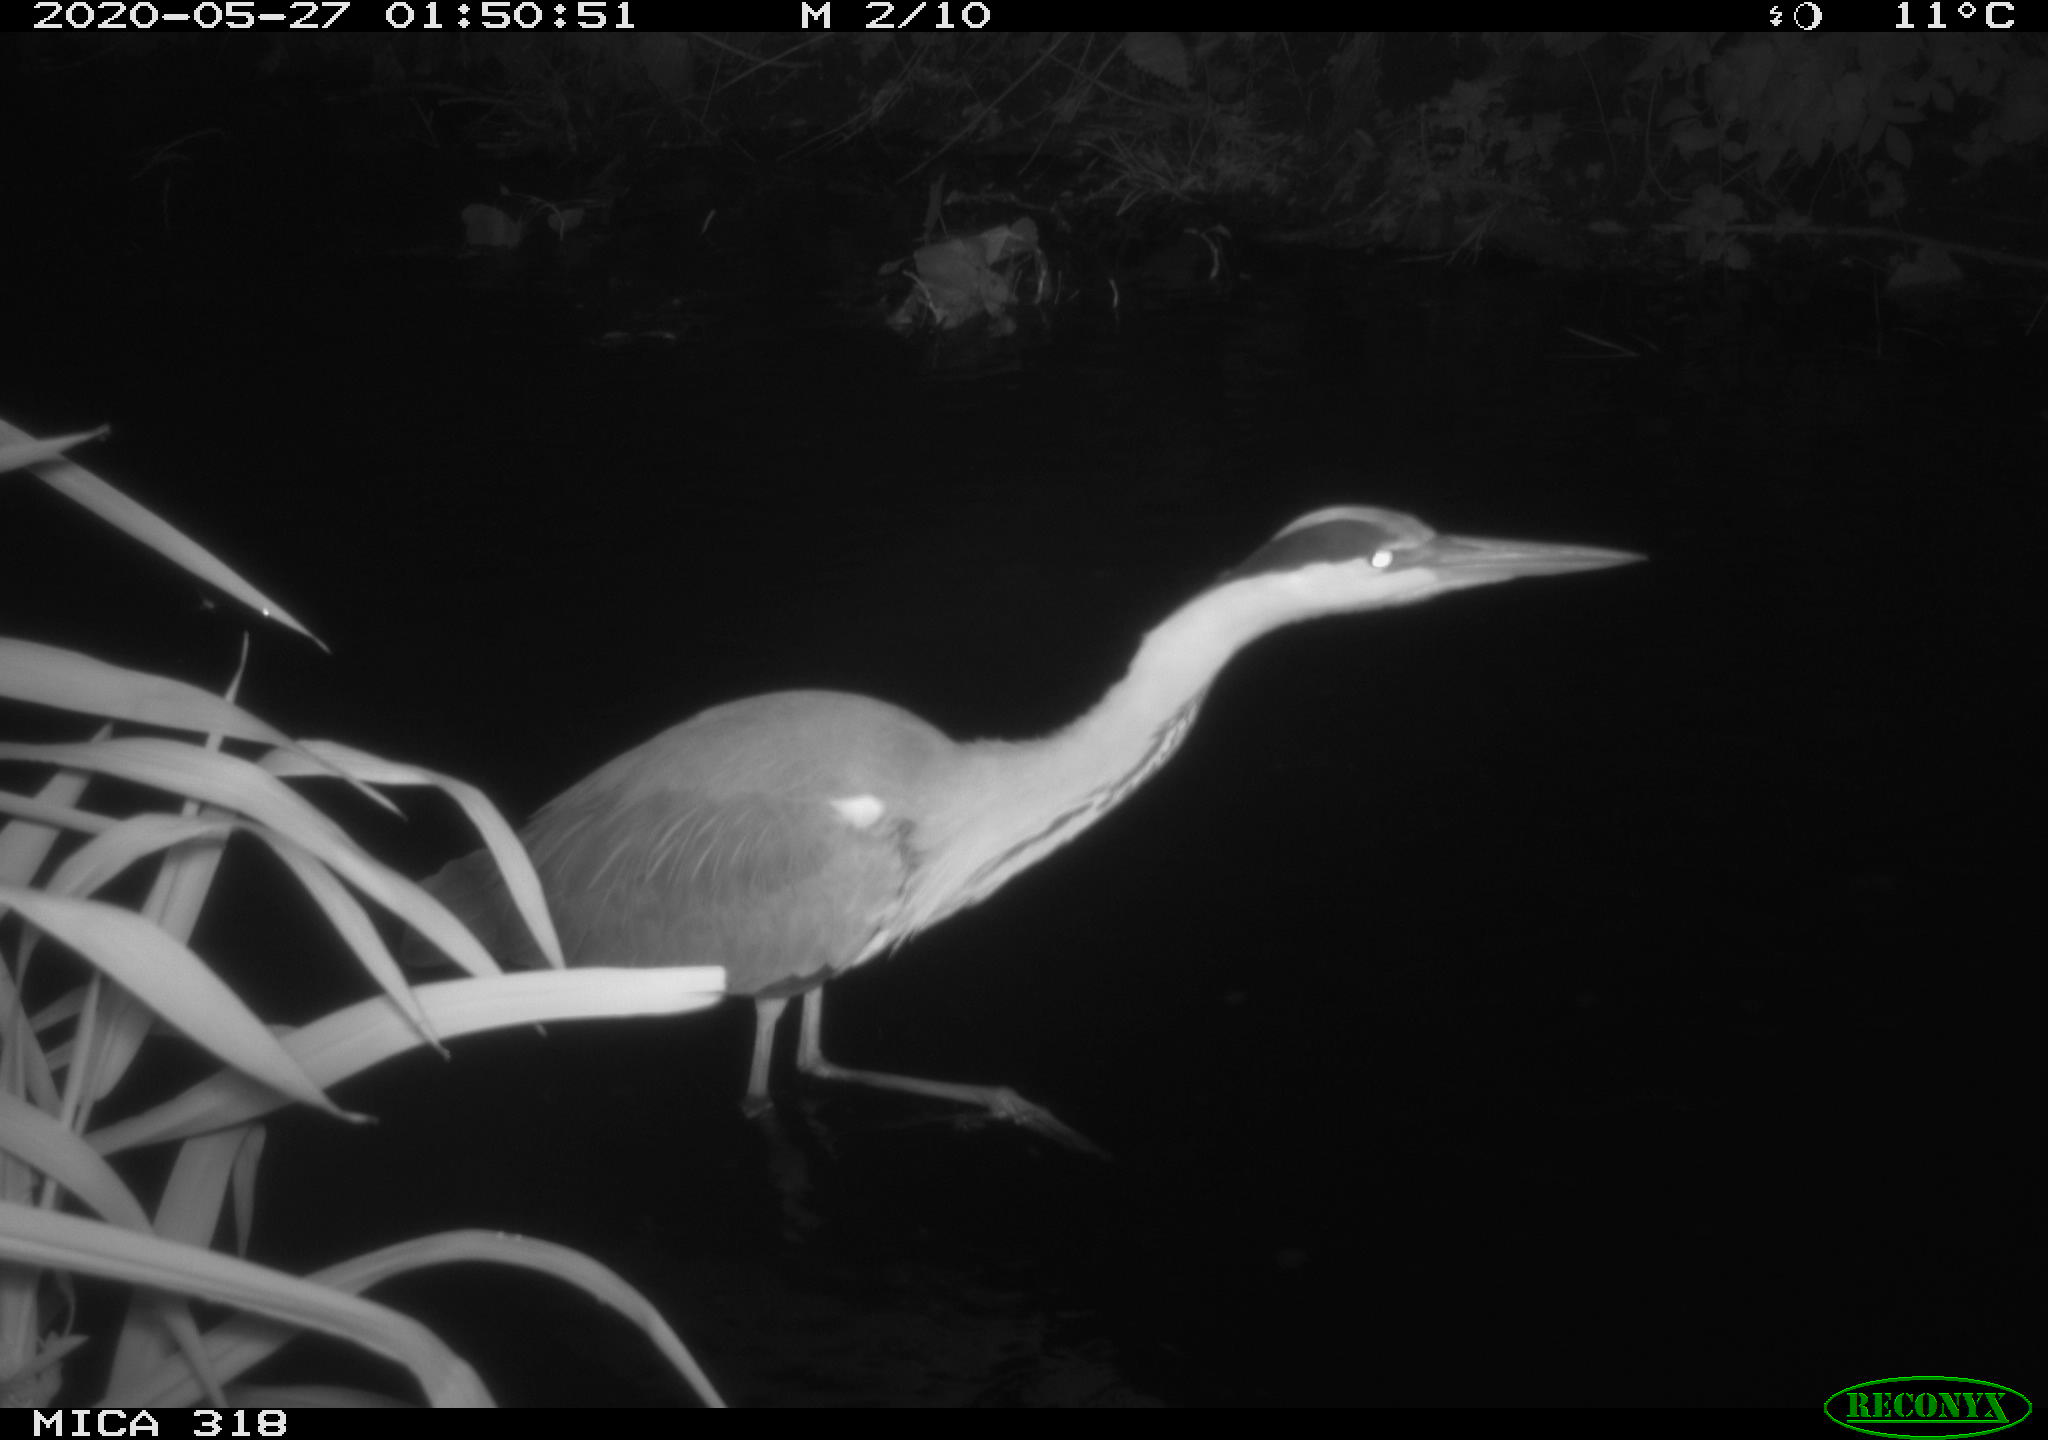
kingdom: Animalia
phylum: Chordata
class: Aves
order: Pelecaniformes
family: Ardeidae
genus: Ardea
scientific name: Ardea cinerea
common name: Grey heron
